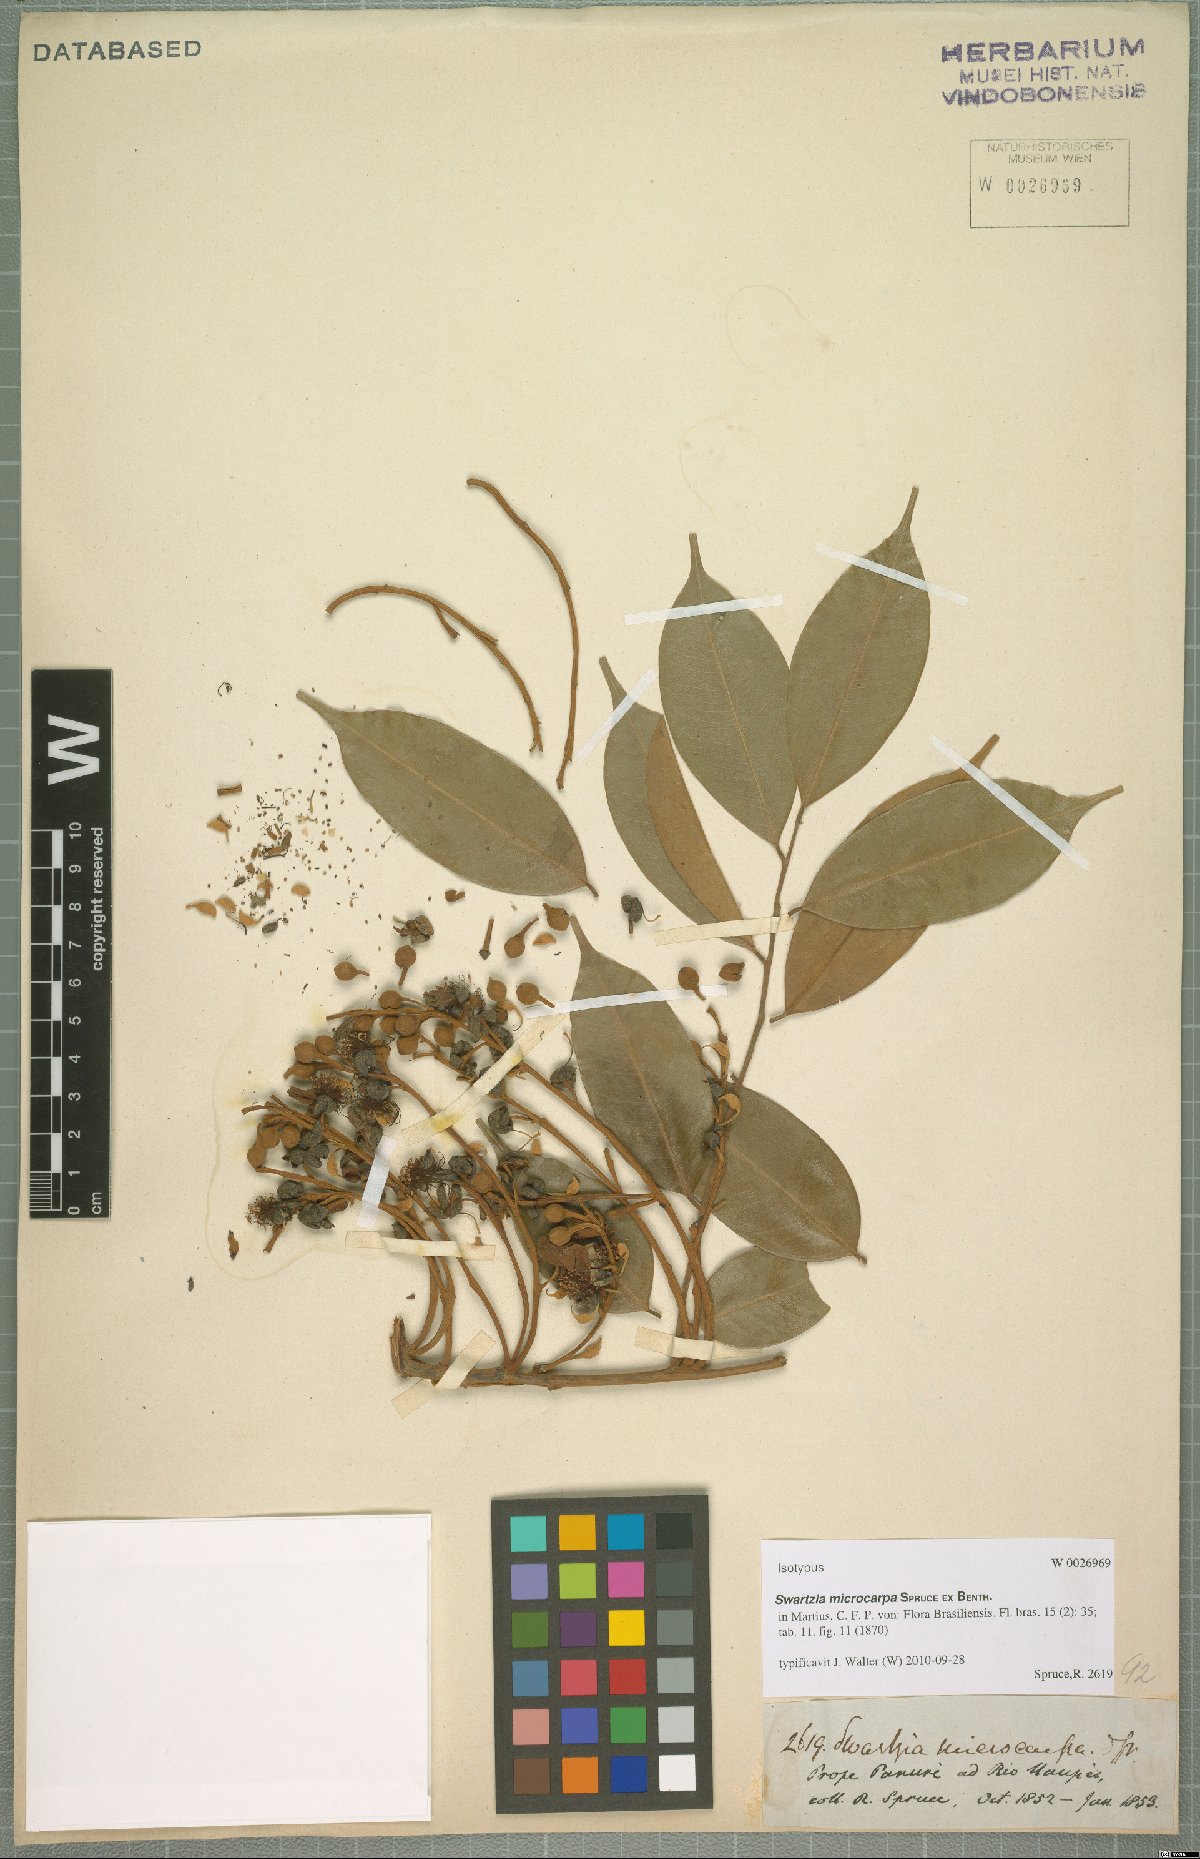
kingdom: Plantae
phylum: Tracheophyta
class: Magnoliopsida
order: Fabales
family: Fabaceae
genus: Swartzia
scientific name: Swartzia microcarpa
